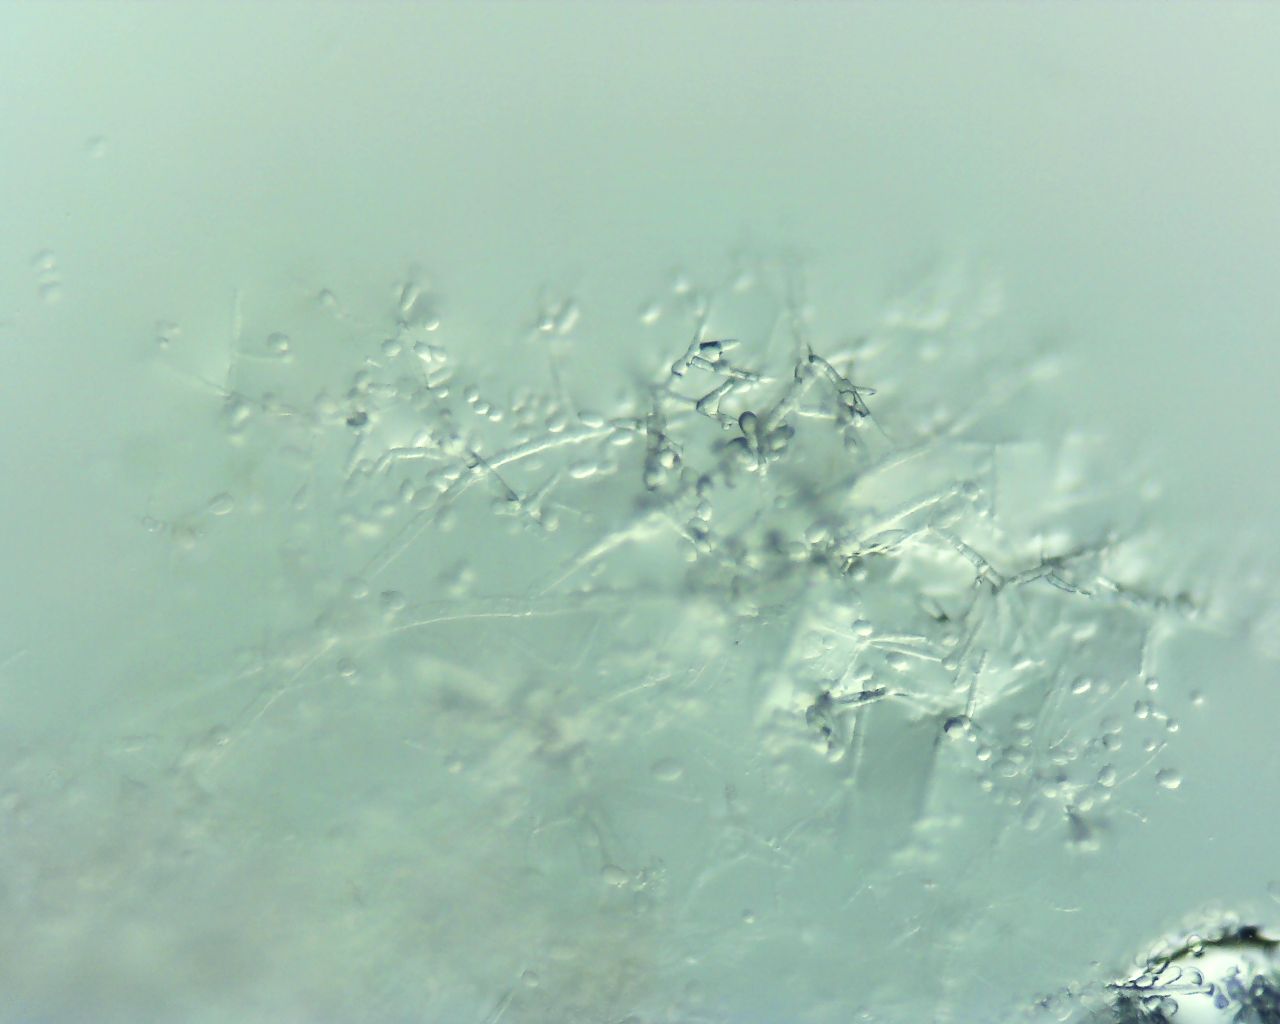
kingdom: Fungi
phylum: Ascomycota
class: Sordariomycetes
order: Hypocreales
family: Hypocreaceae
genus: Cladobotryum
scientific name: Cladobotryum
